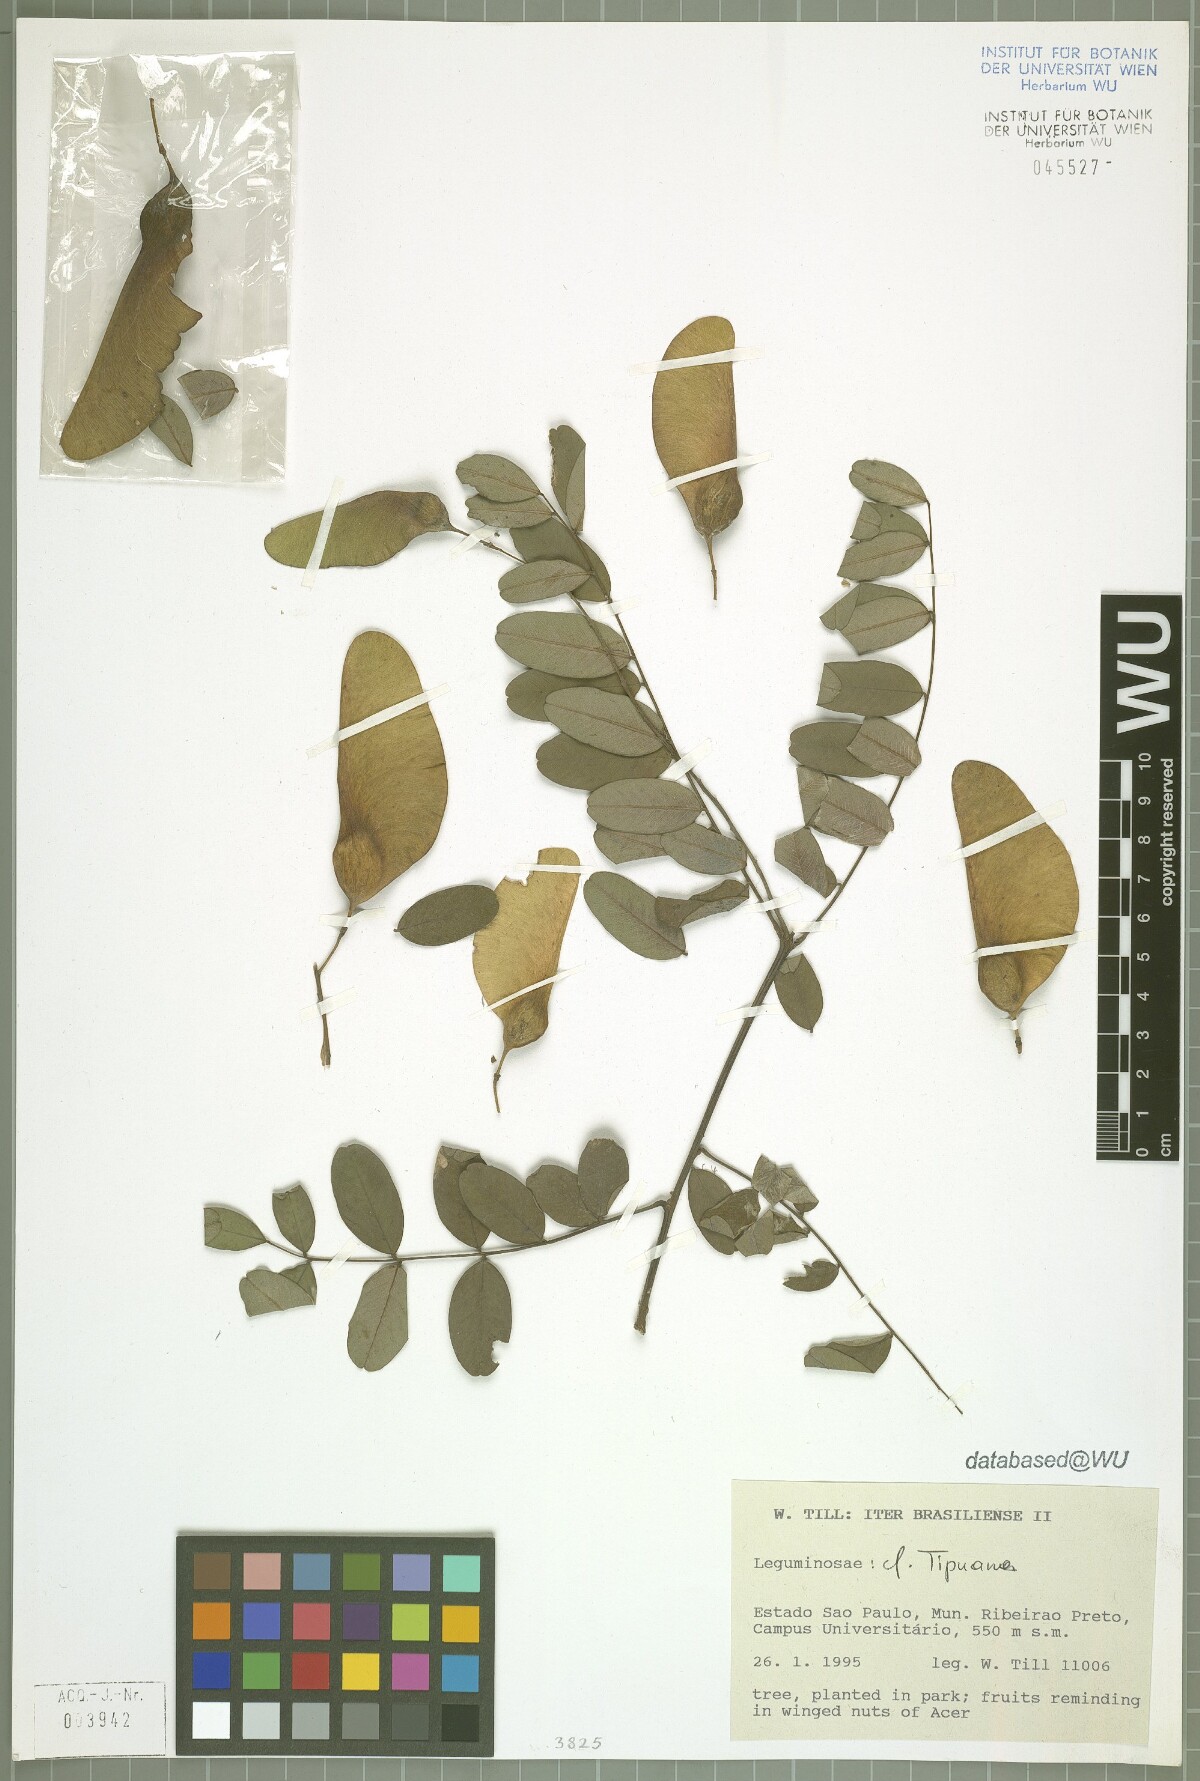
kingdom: Plantae
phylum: Tracheophyta
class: Magnoliopsida
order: Fabales
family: Fabaceae
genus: Tipuana
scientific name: Tipuana
